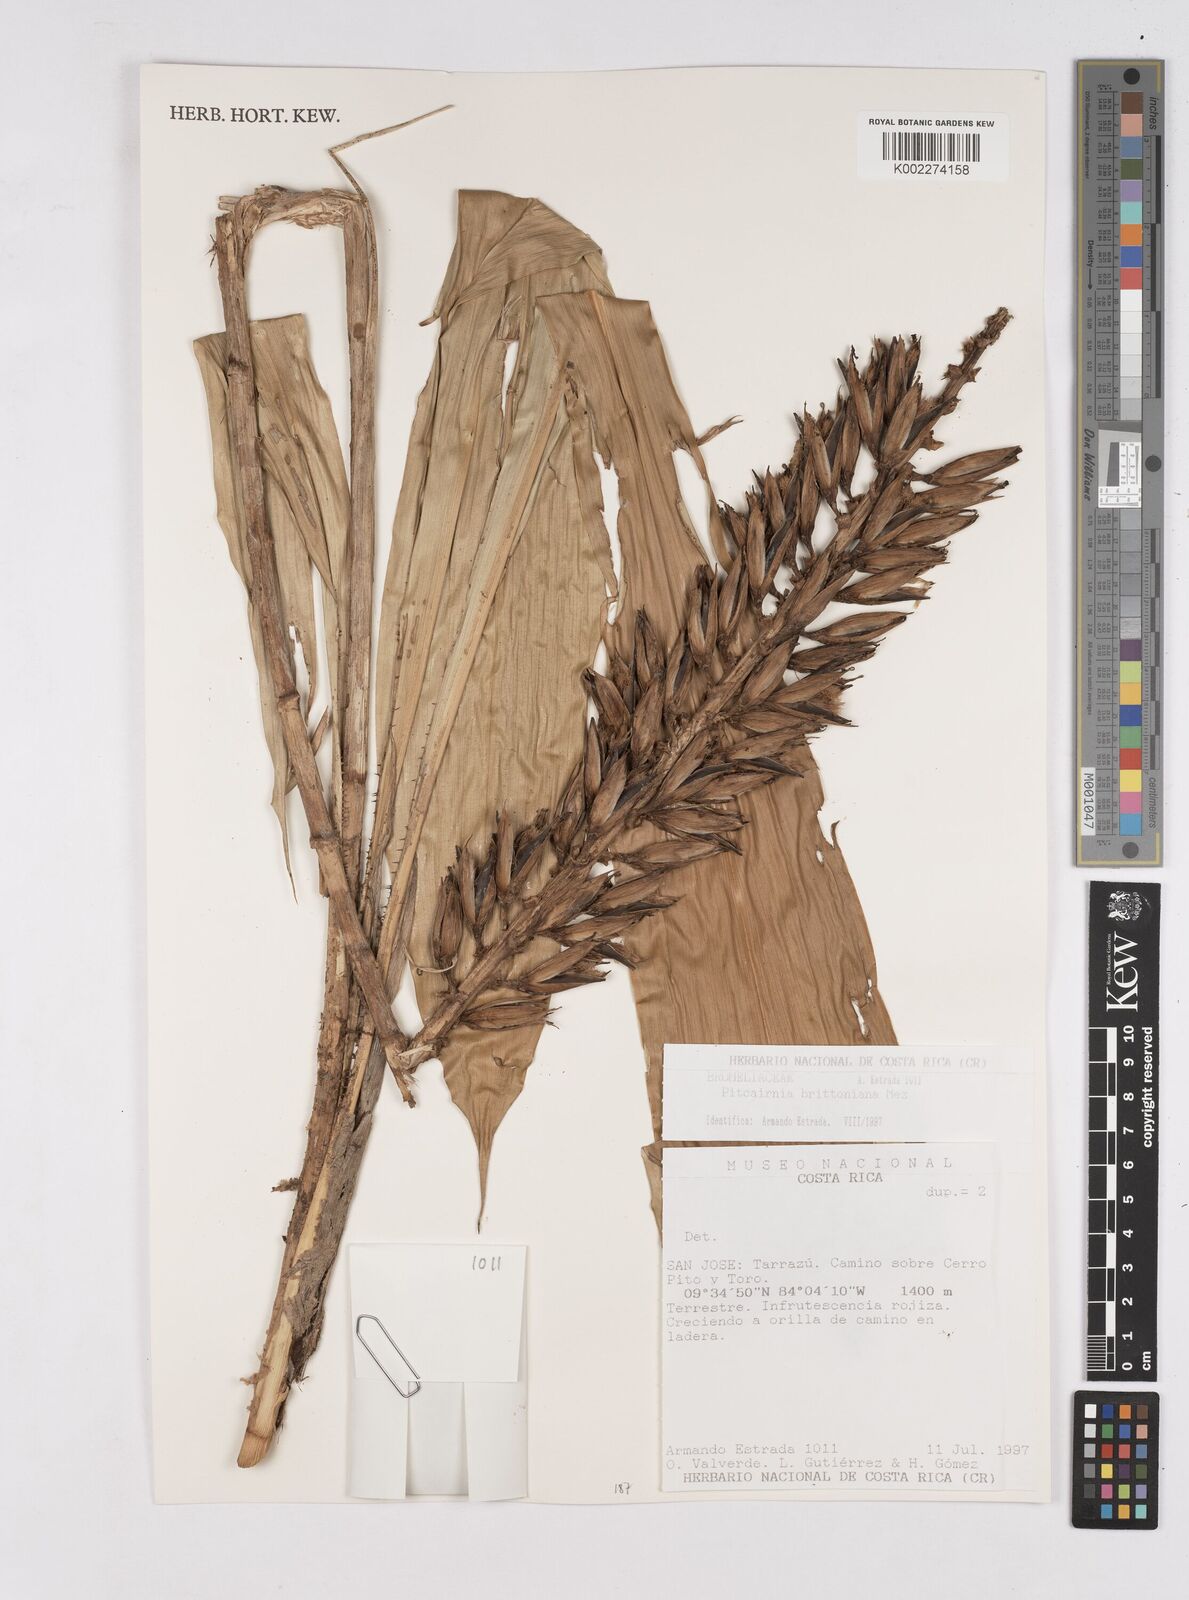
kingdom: Plantae
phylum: Tracheophyta
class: Liliopsida
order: Poales
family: Bromeliaceae
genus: Pitcairnia
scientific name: Pitcairnia brittoniana
